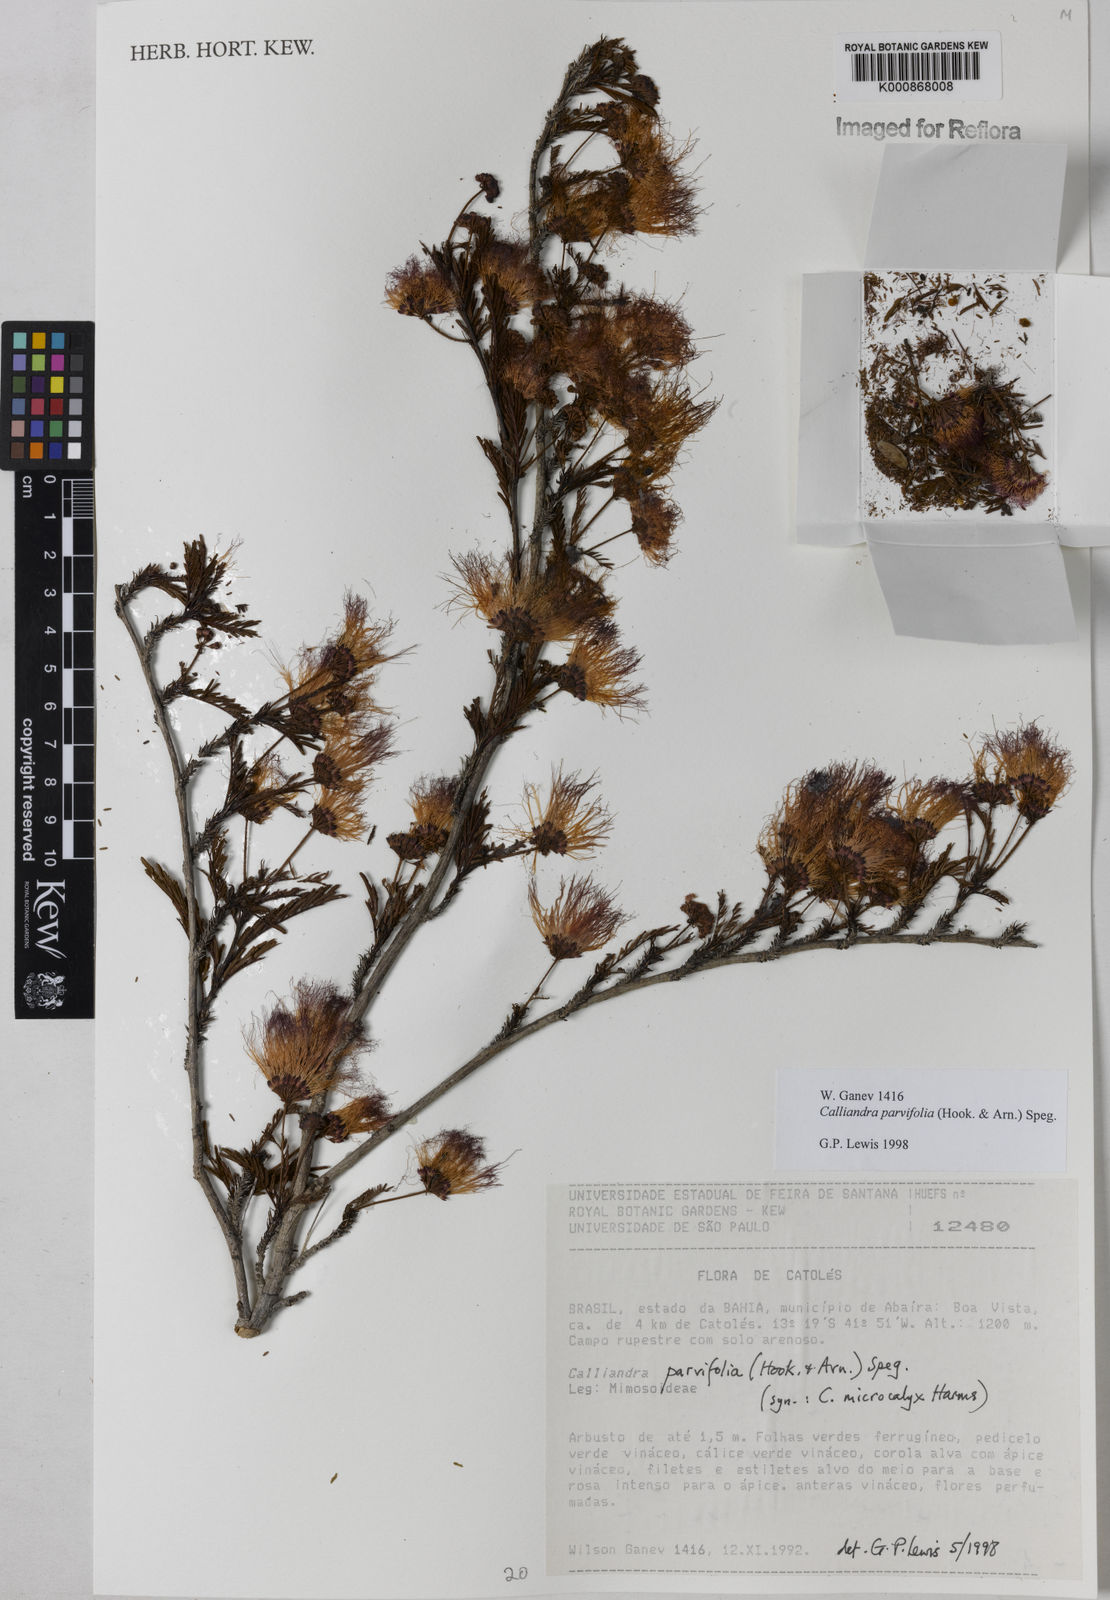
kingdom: Plantae
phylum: Tracheophyta
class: Magnoliopsida
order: Fabales
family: Fabaceae
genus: Calliandra
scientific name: Calliandra parvifolia
